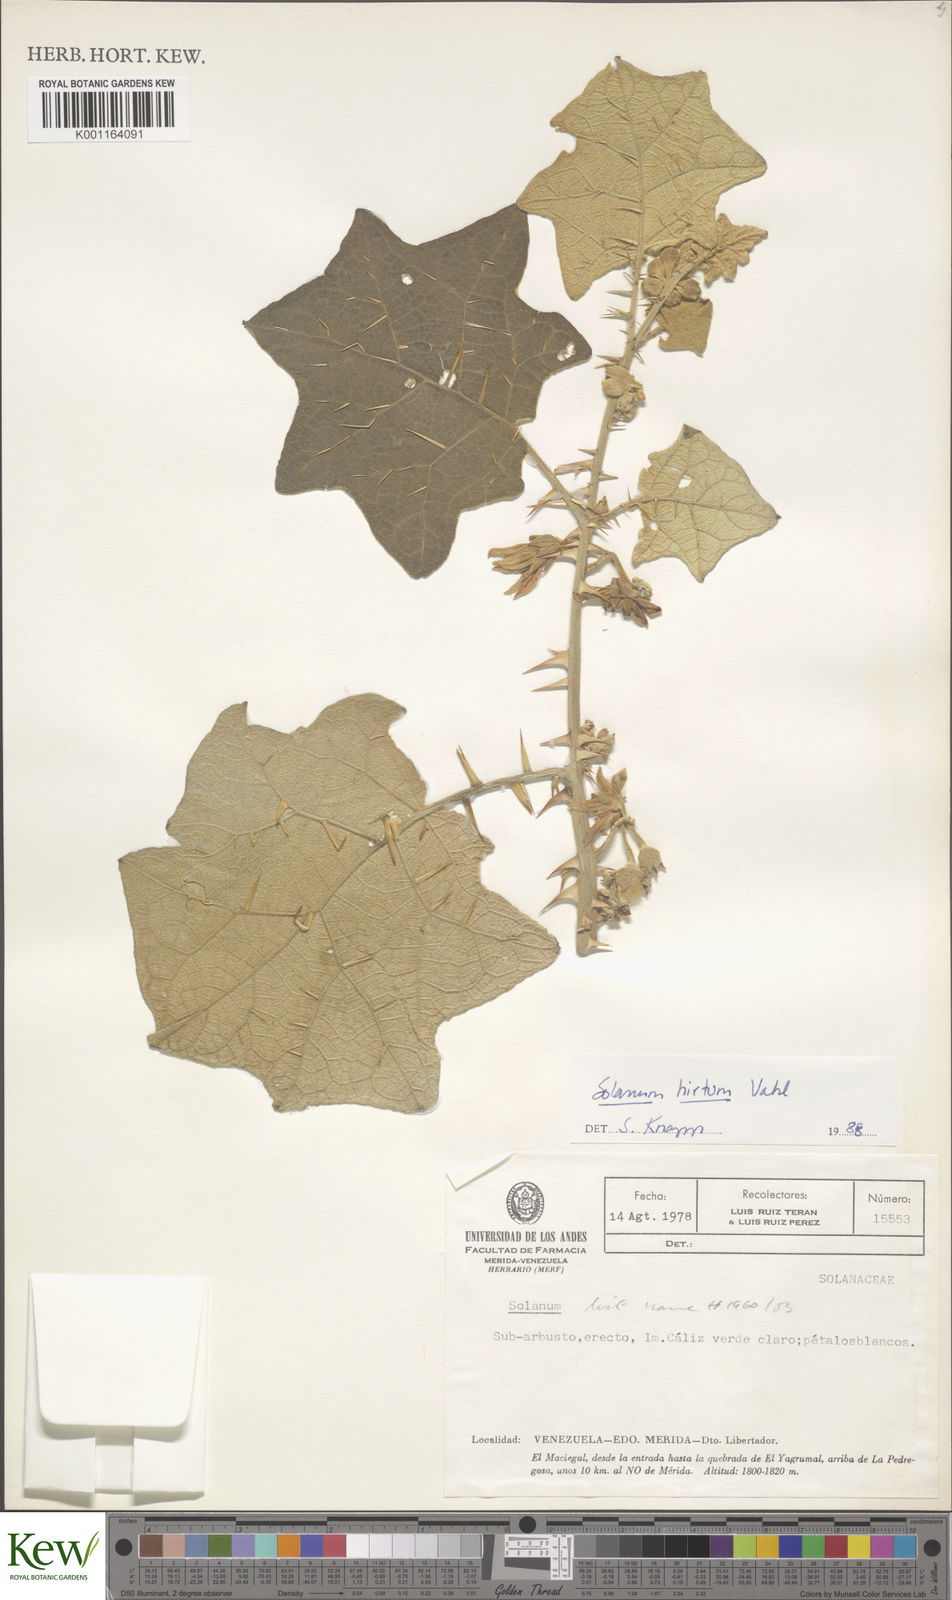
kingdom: Plantae
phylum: Tracheophyta
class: Magnoliopsida
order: Solanales
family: Solanaceae
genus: Solanum
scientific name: Solanum hirtum
